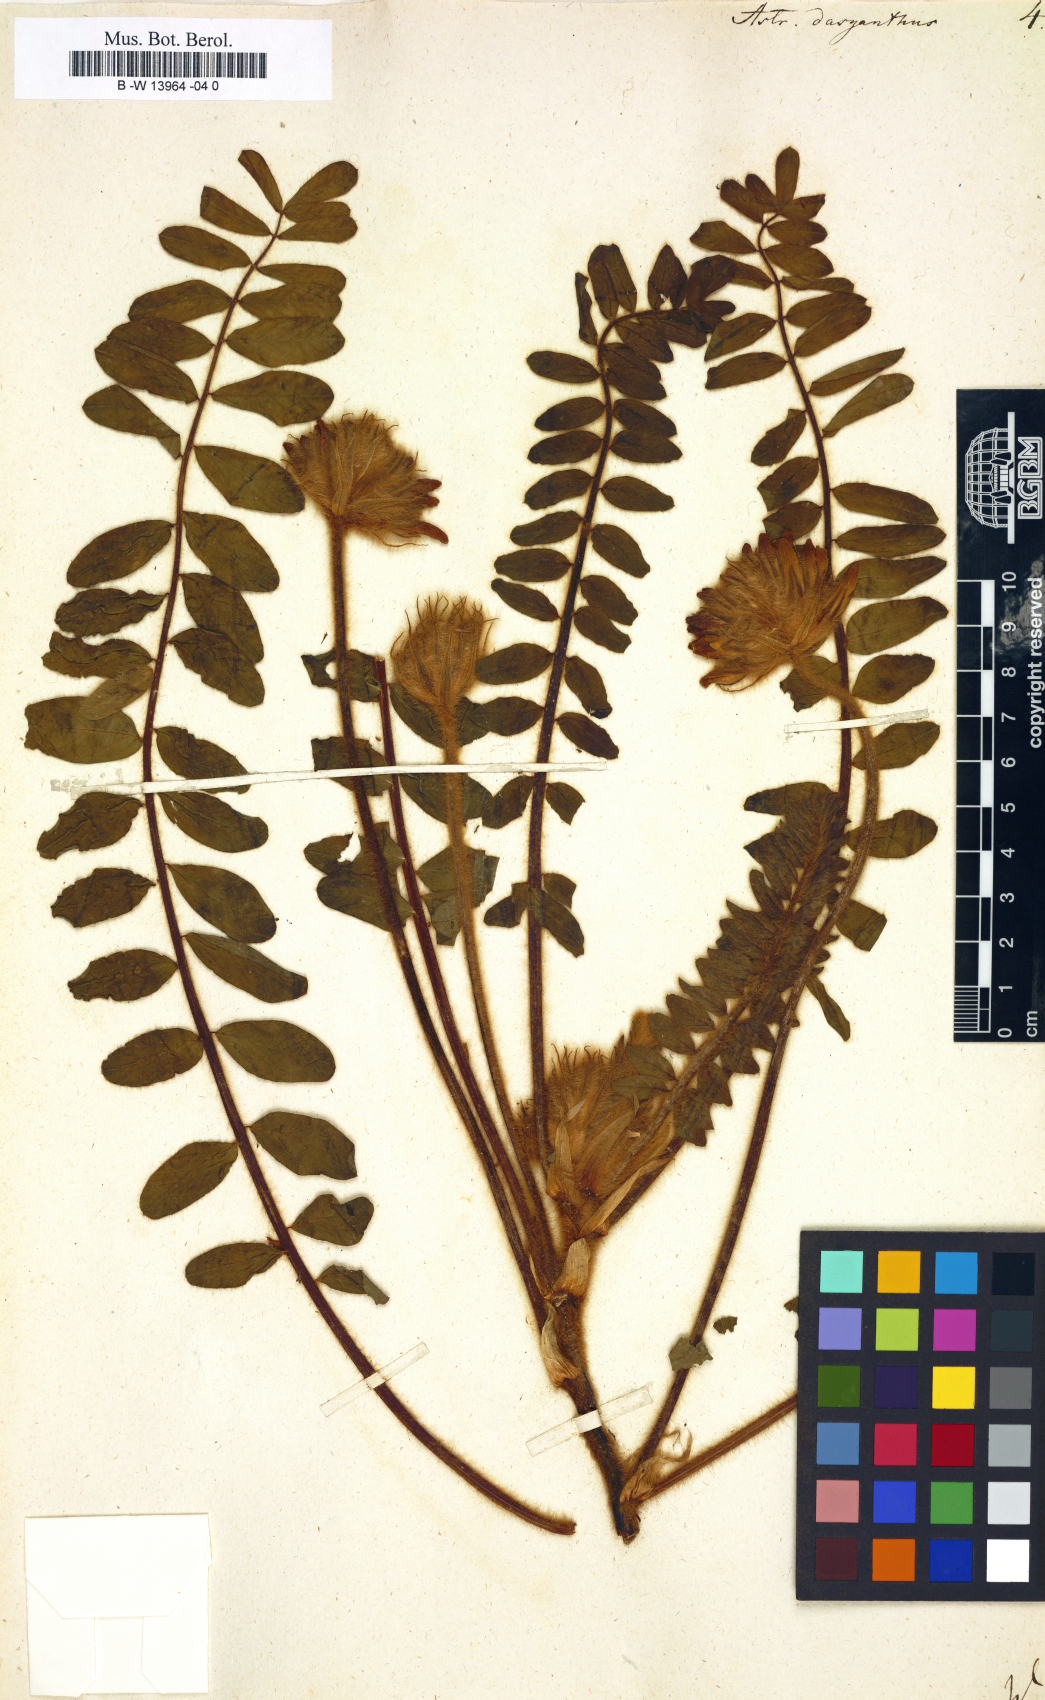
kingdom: Plantae
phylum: Tracheophyta
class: Magnoliopsida
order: Fabales
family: Fabaceae
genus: Astragalus
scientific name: Astragalus dasyanthus
